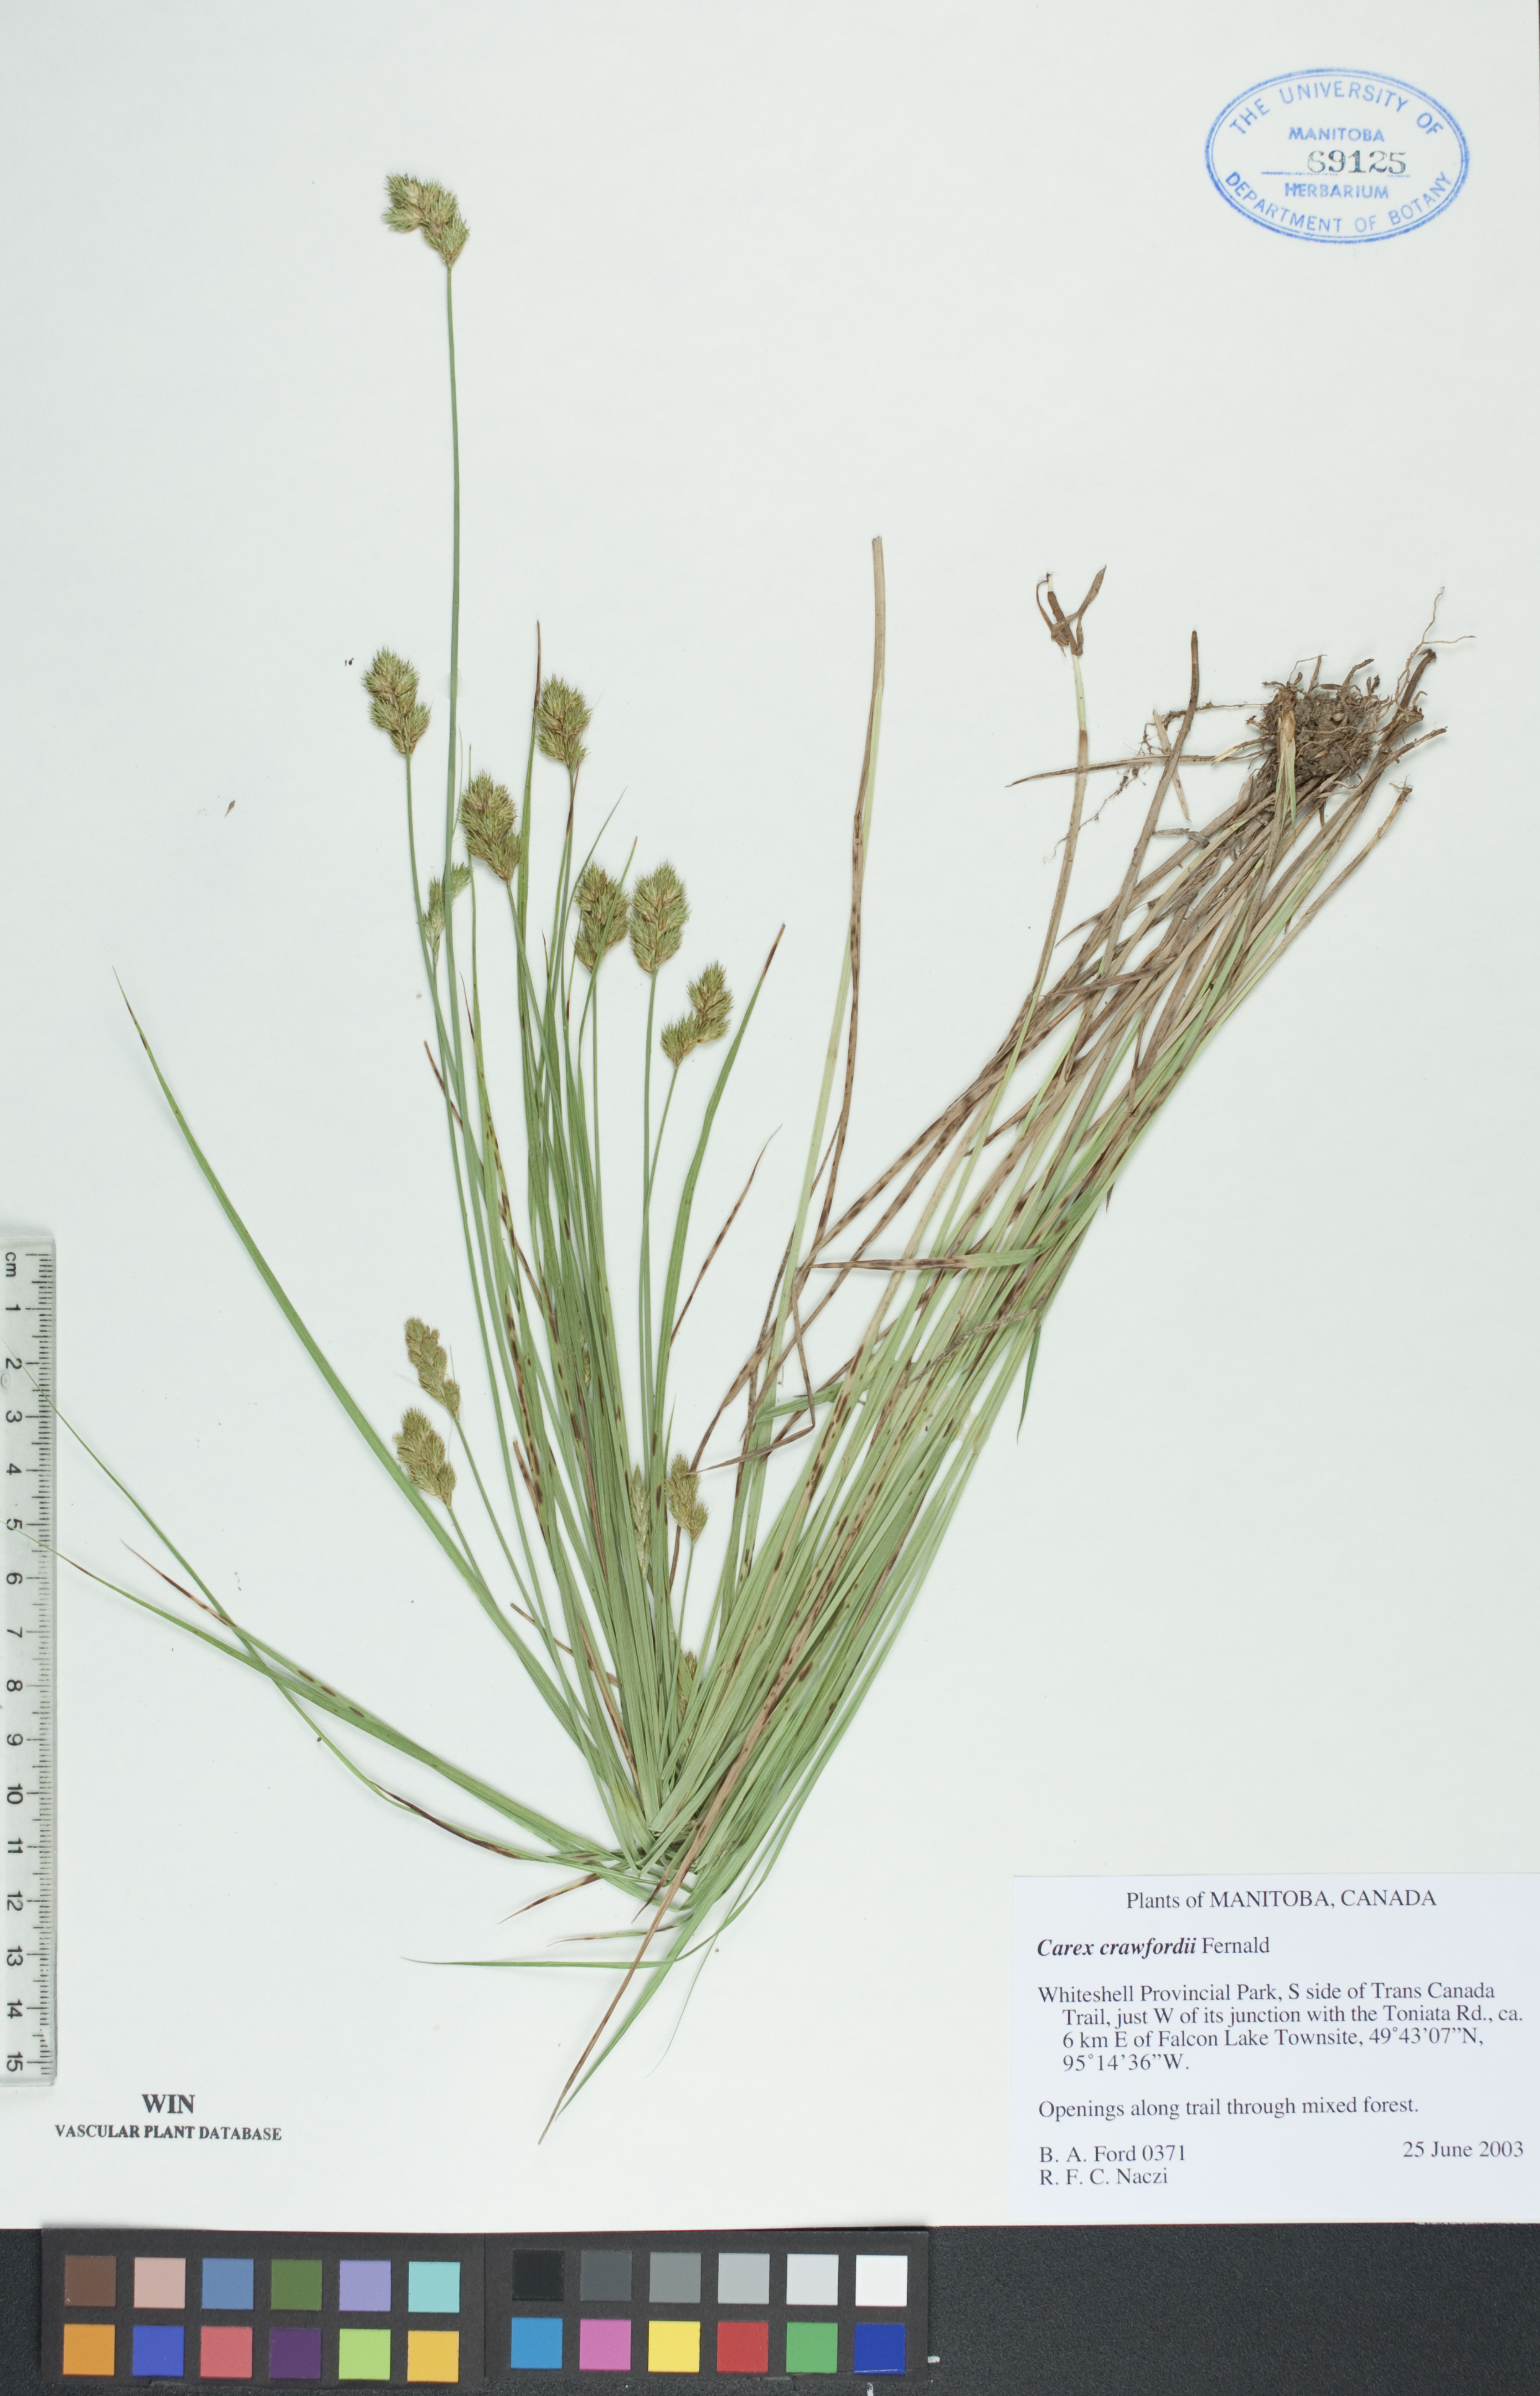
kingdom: Plantae
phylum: Tracheophyta
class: Liliopsida
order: Poales
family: Cyperaceae
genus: Carex
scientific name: Carex crawfordii
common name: Crawford's sedge
